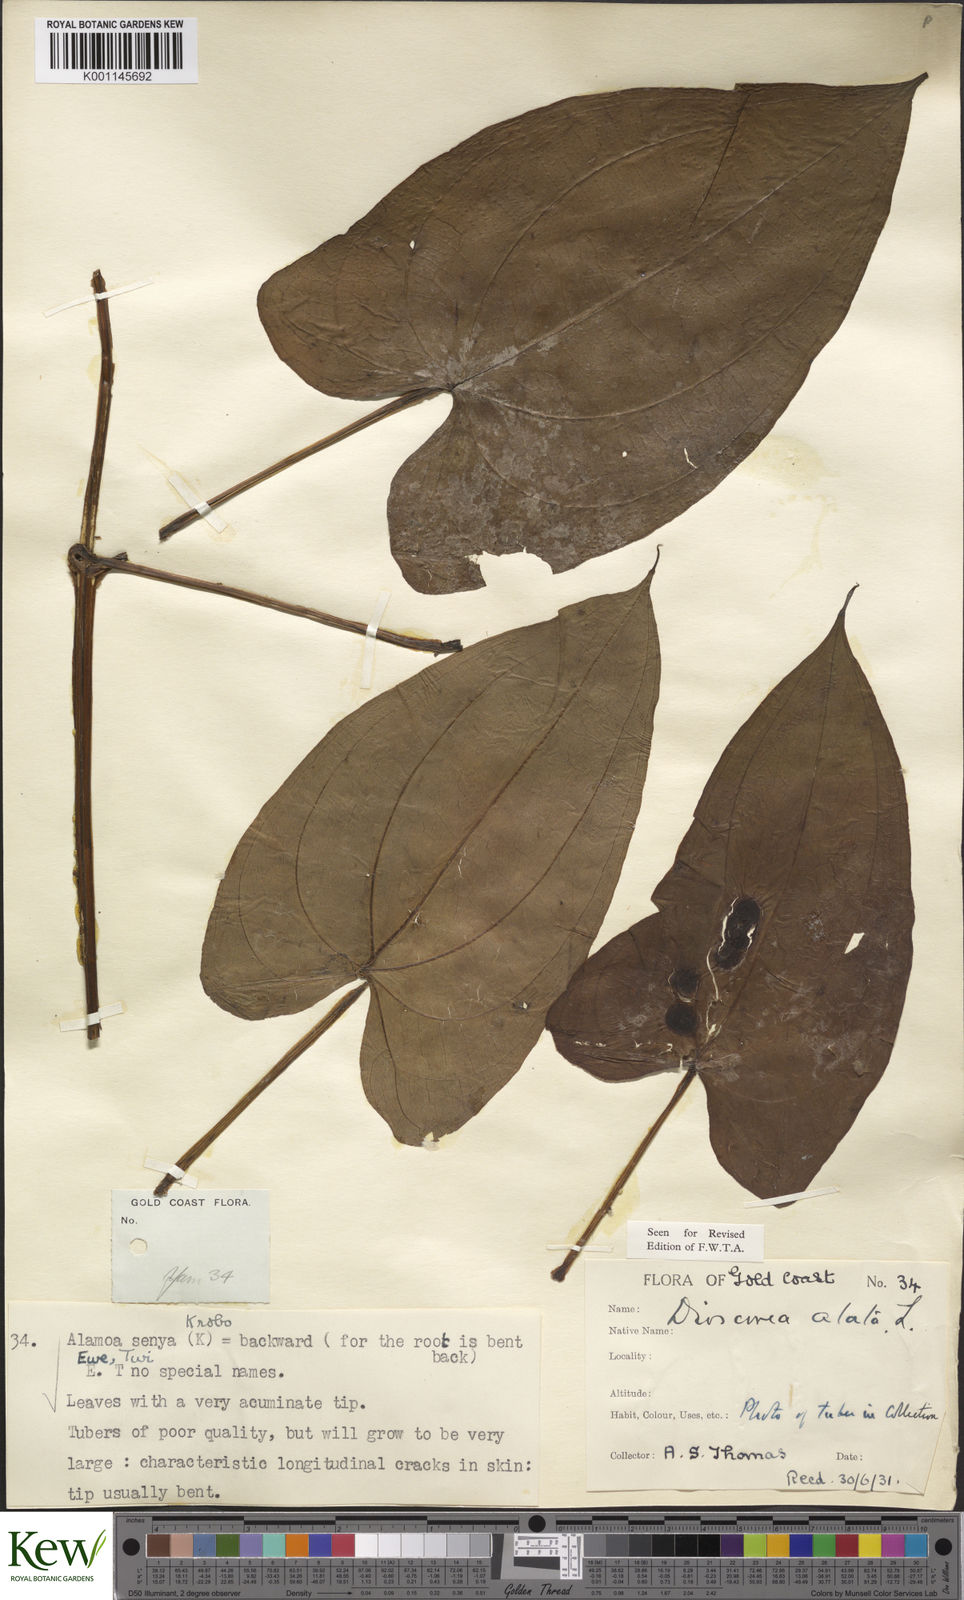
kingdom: Plantae
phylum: Tracheophyta
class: Liliopsida
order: Dioscoreales
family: Dioscoreaceae
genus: Dioscorea
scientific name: Dioscorea alata
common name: Water yam
